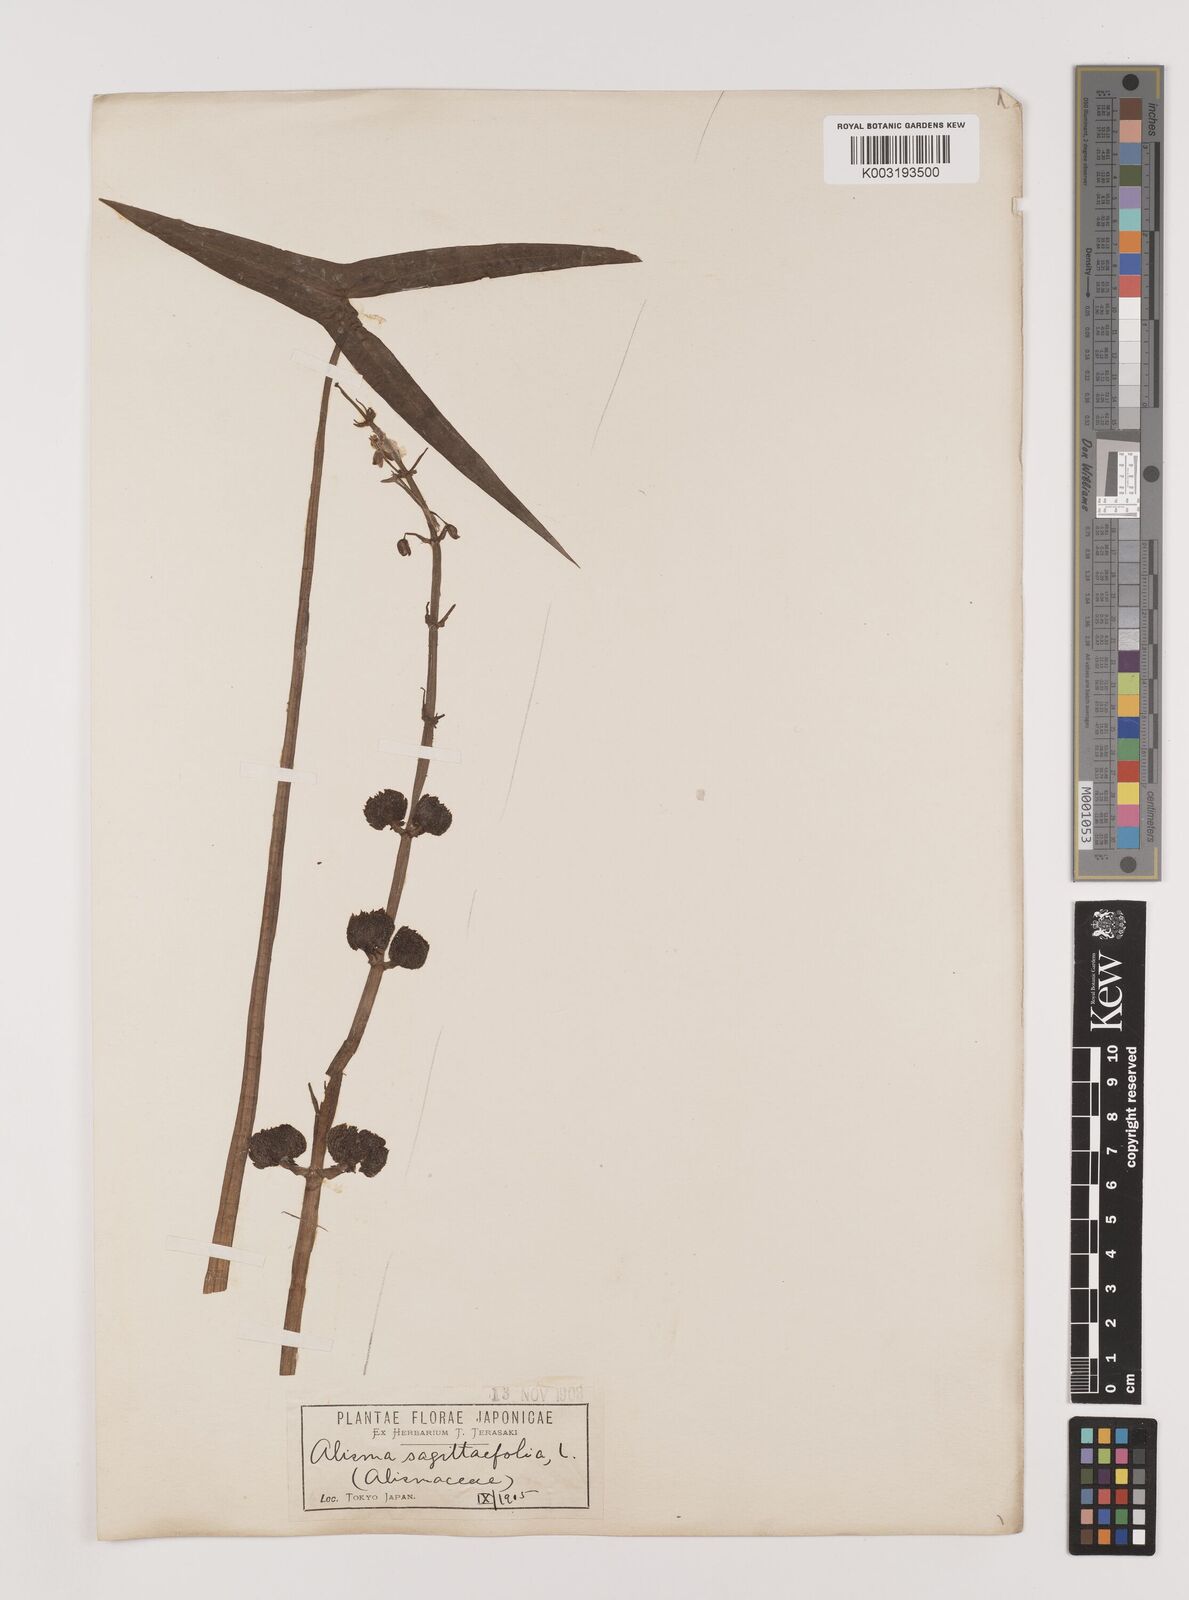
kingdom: Plantae
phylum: Tracheophyta
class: Liliopsida
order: Alismatales
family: Alismataceae
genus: Sagittaria
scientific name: Sagittaria sagittifolia
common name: Arrowhead
